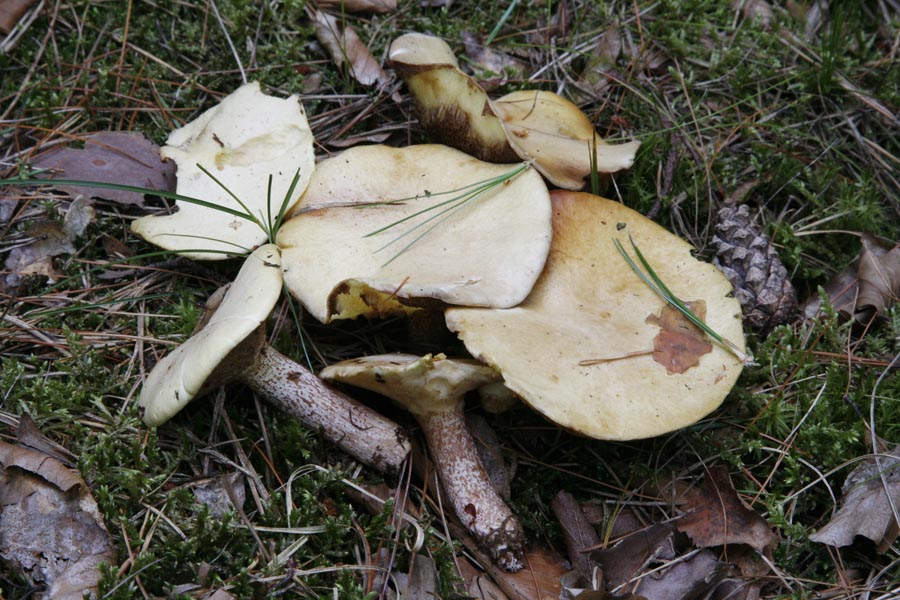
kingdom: Fungi
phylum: Basidiomycota
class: Agaricomycetes
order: Boletales
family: Suillaceae
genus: Suillus
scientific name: Suillus placidus
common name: elfenbens-slimrørhat
